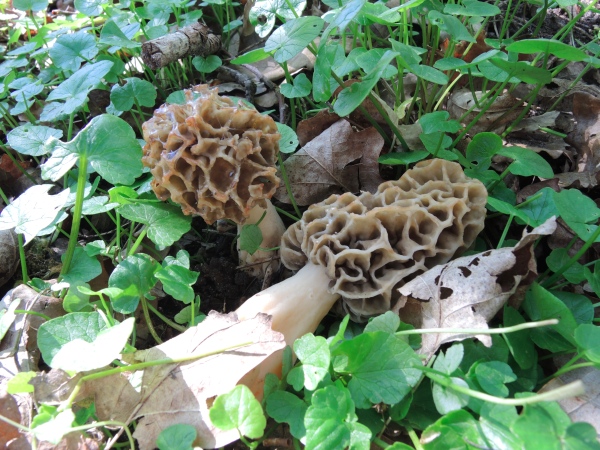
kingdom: Fungi
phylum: Ascomycota
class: Pezizomycetes
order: Pezizales
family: Morchellaceae
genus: Morchella
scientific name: Morchella esculenta
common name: spiselig morkel
